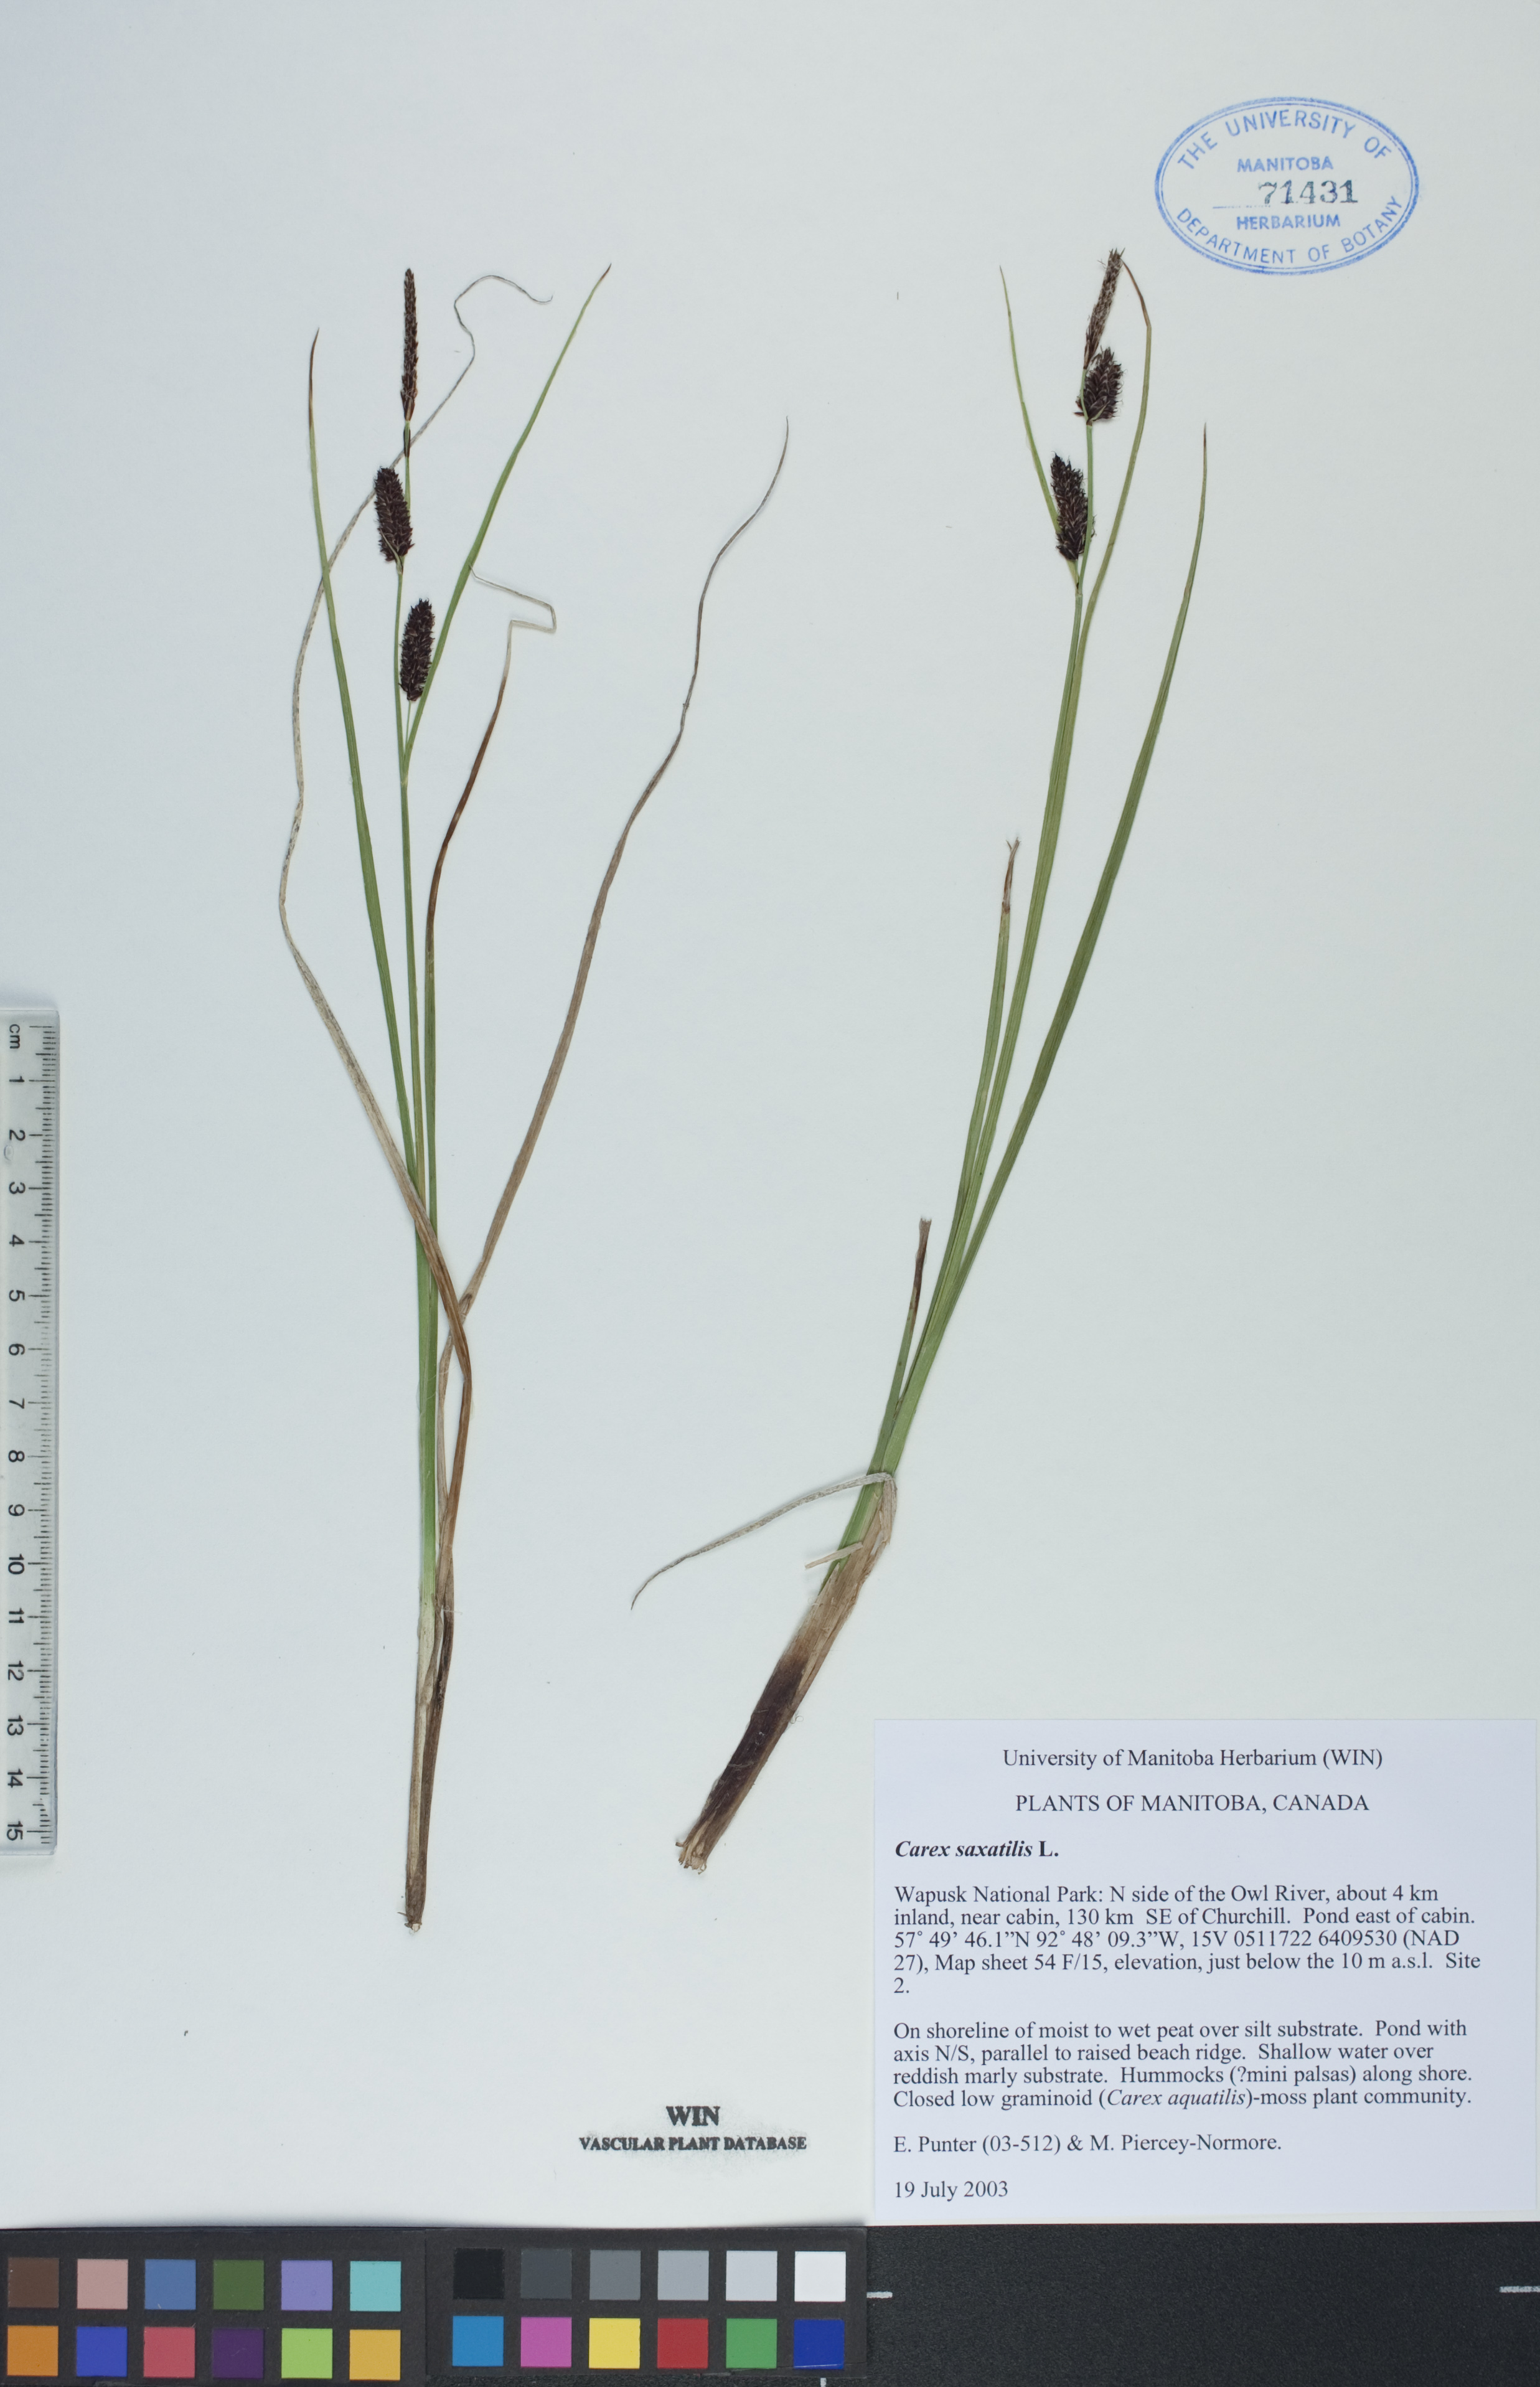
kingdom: Plantae
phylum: Tracheophyta
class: Liliopsida
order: Poales
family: Cyperaceae
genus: Carex
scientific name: Carex saxatilis
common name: Russet sedge
